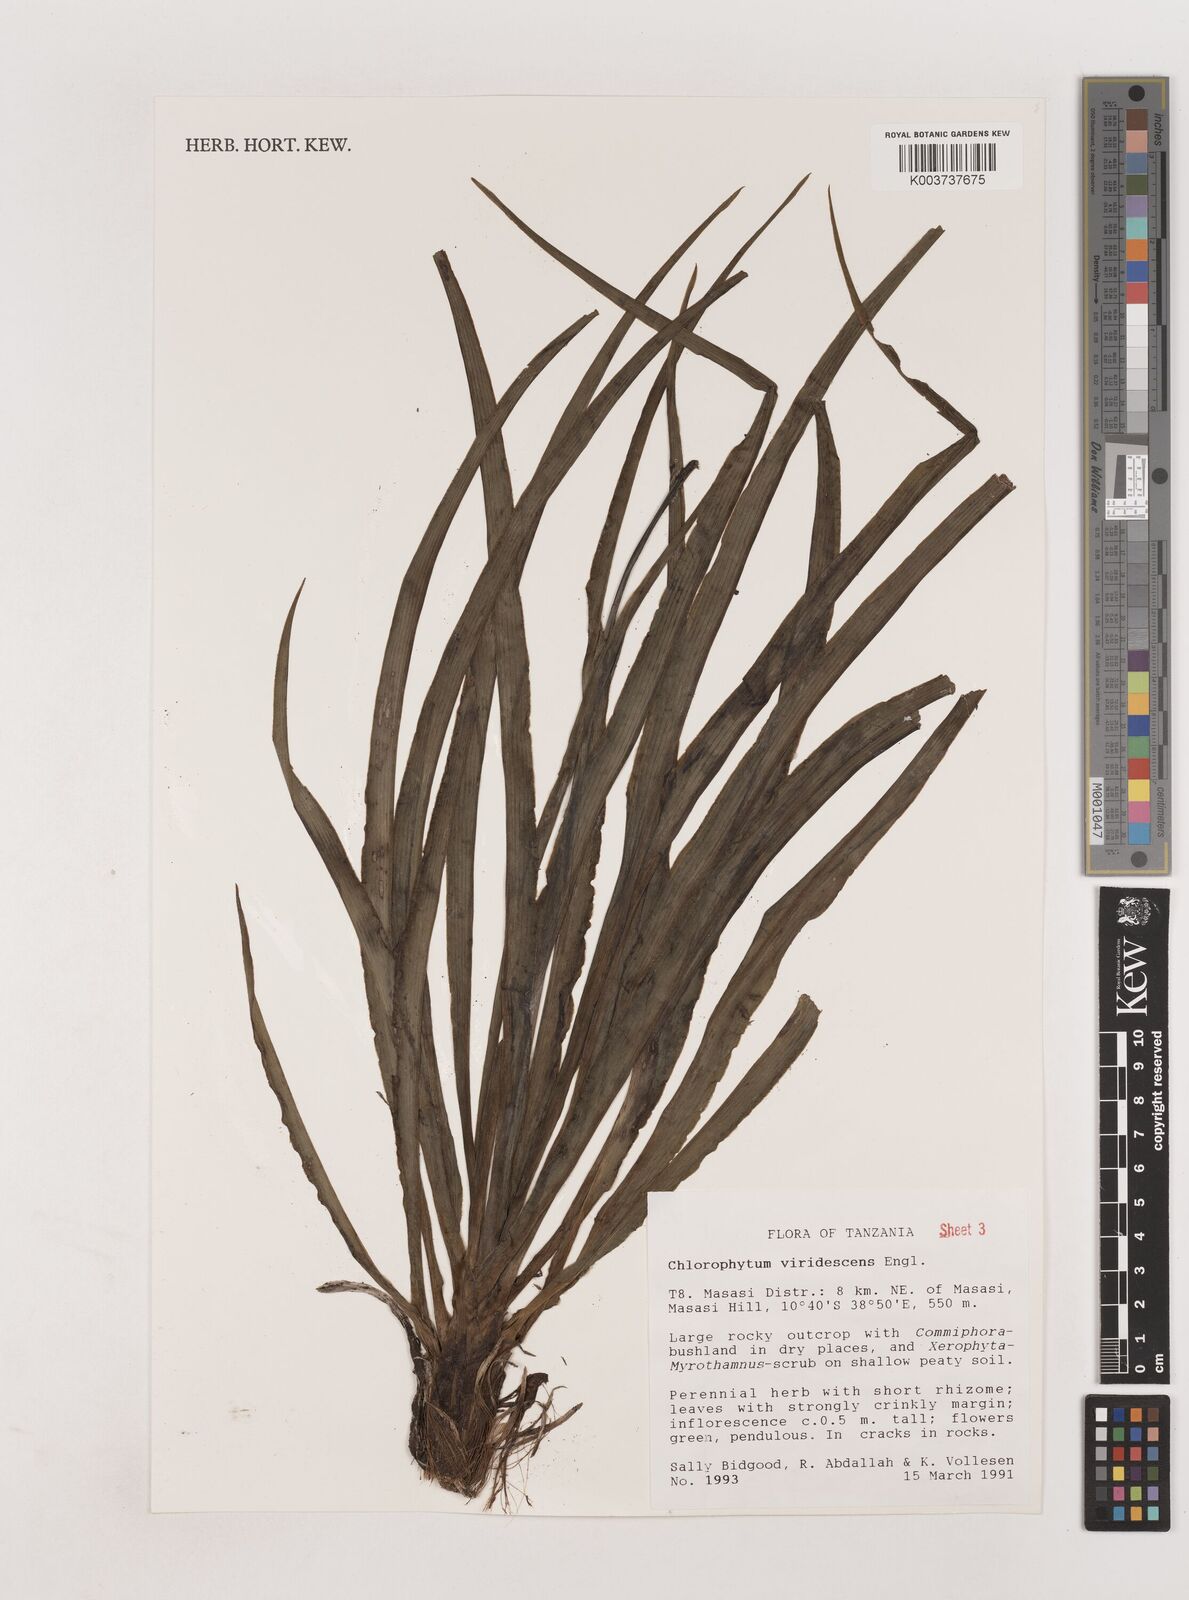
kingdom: Plantae
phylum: Tracheophyta
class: Liliopsida
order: Asparagales
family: Asparagaceae
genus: Chlorophytum
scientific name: Chlorophytum viridescens
